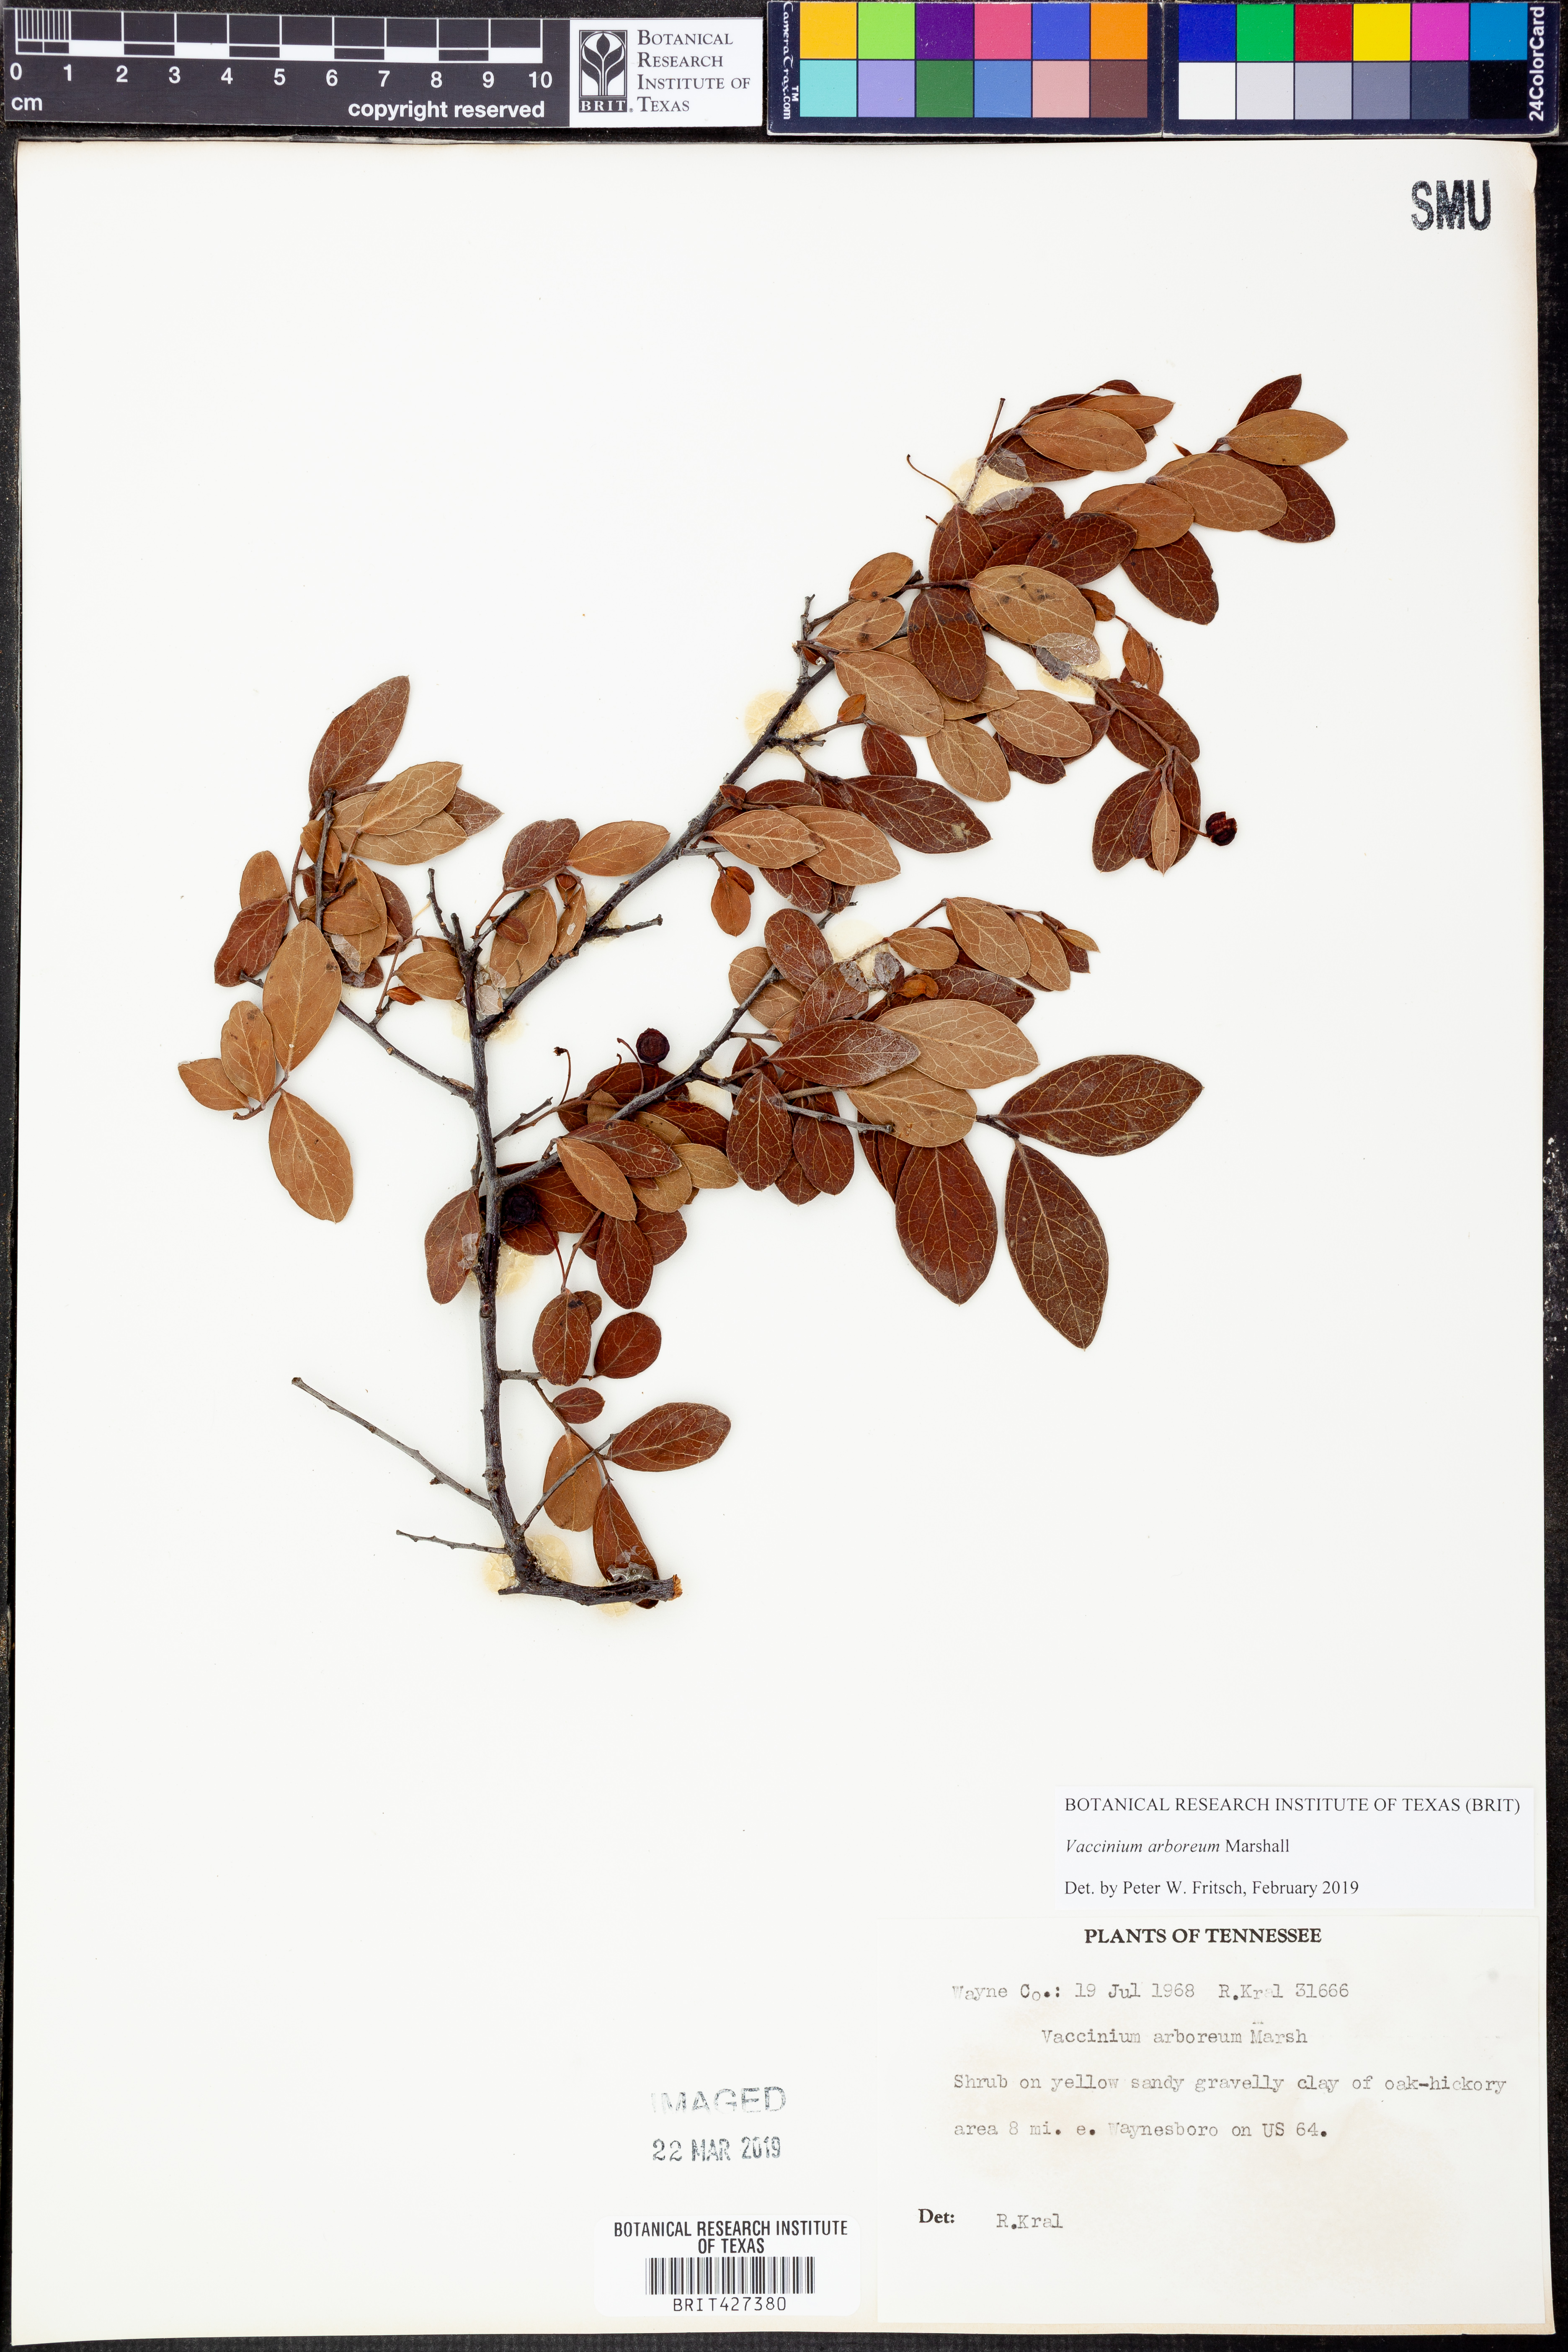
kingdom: Plantae
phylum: Tracheophyta
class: Magnoliopsida
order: Ericales
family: Ericaceae
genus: Vaccinium
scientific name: Vaccinium arboreum
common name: Farkleberry
